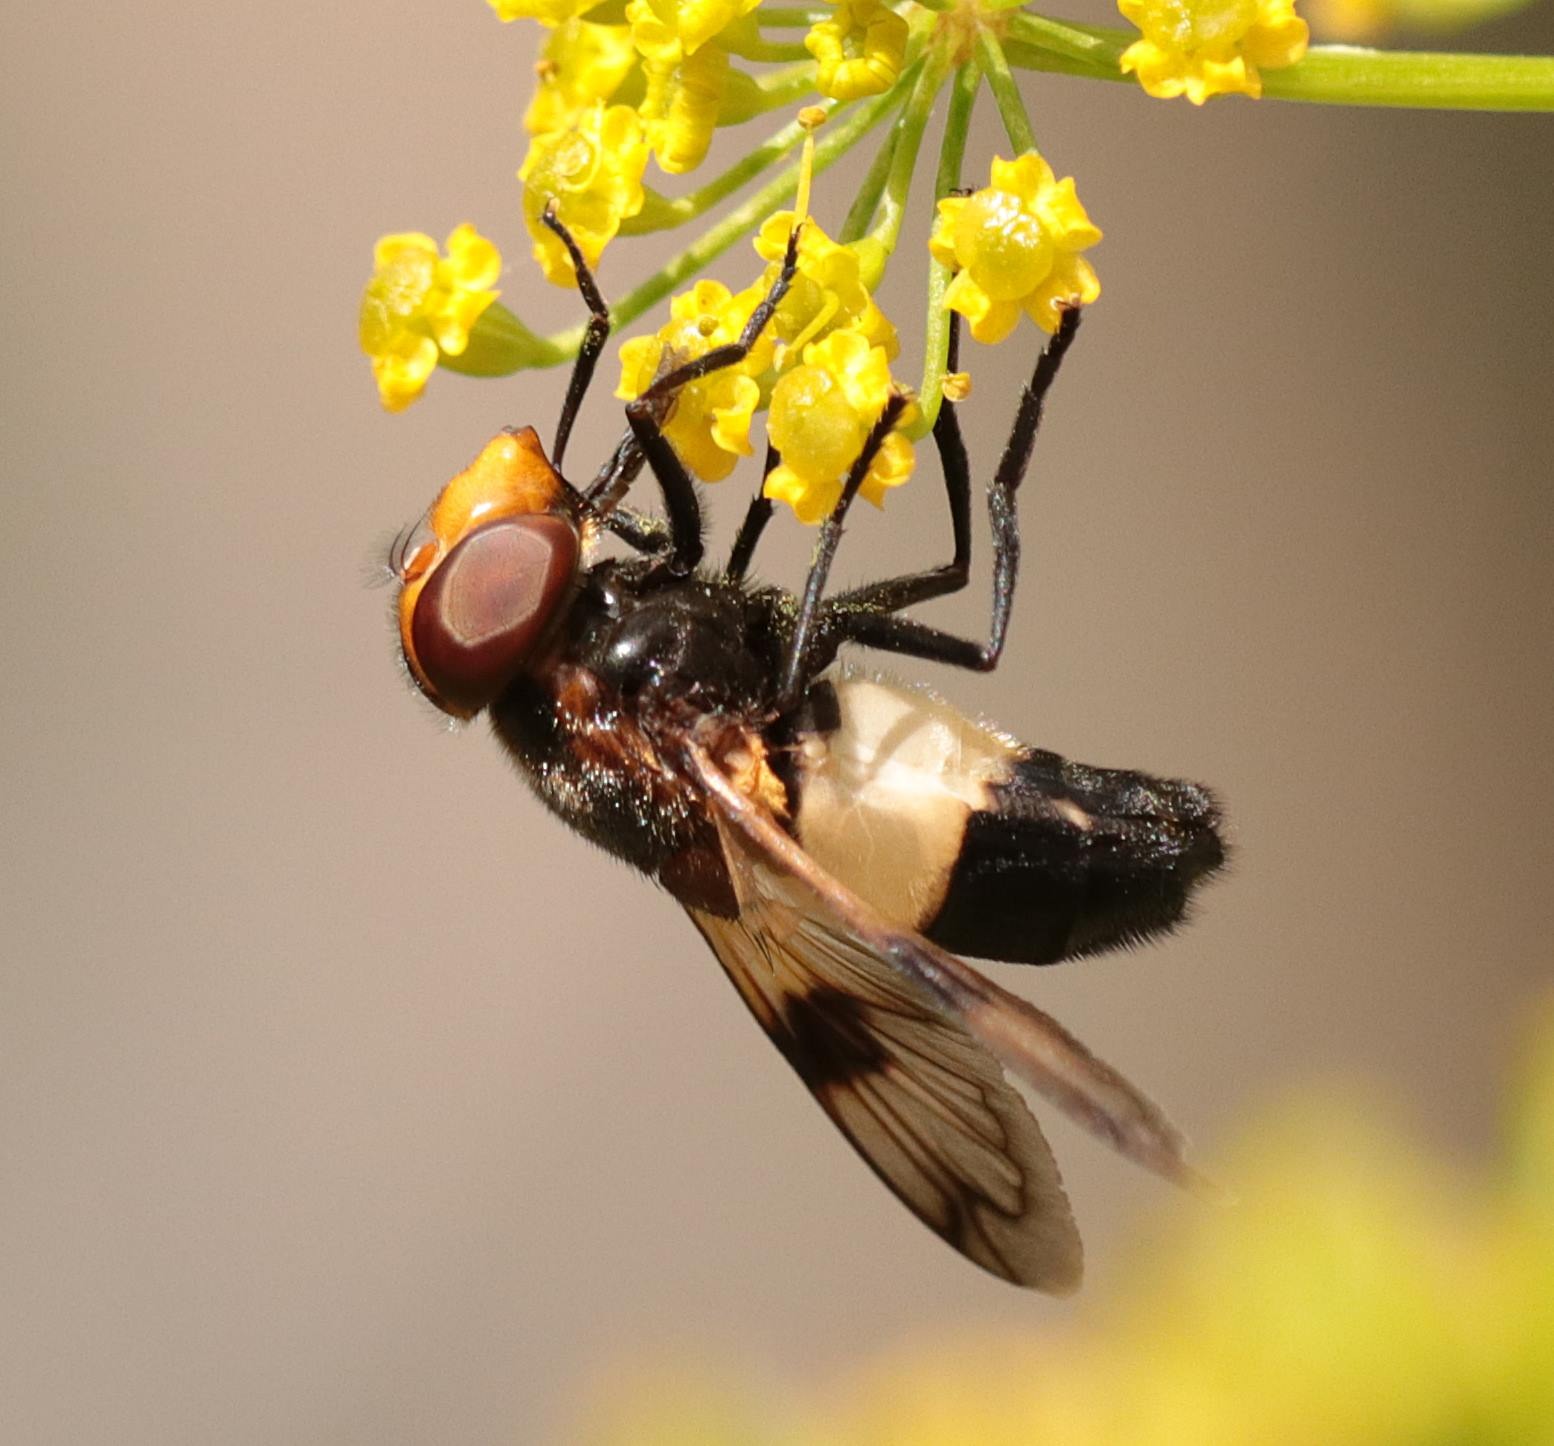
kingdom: Animalia
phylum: Arthropoda
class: Insecta
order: Diptera
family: Syrphidae
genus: Volucella
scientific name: Volucella pellucens
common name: Hvidbåndet humlesvirreflue
